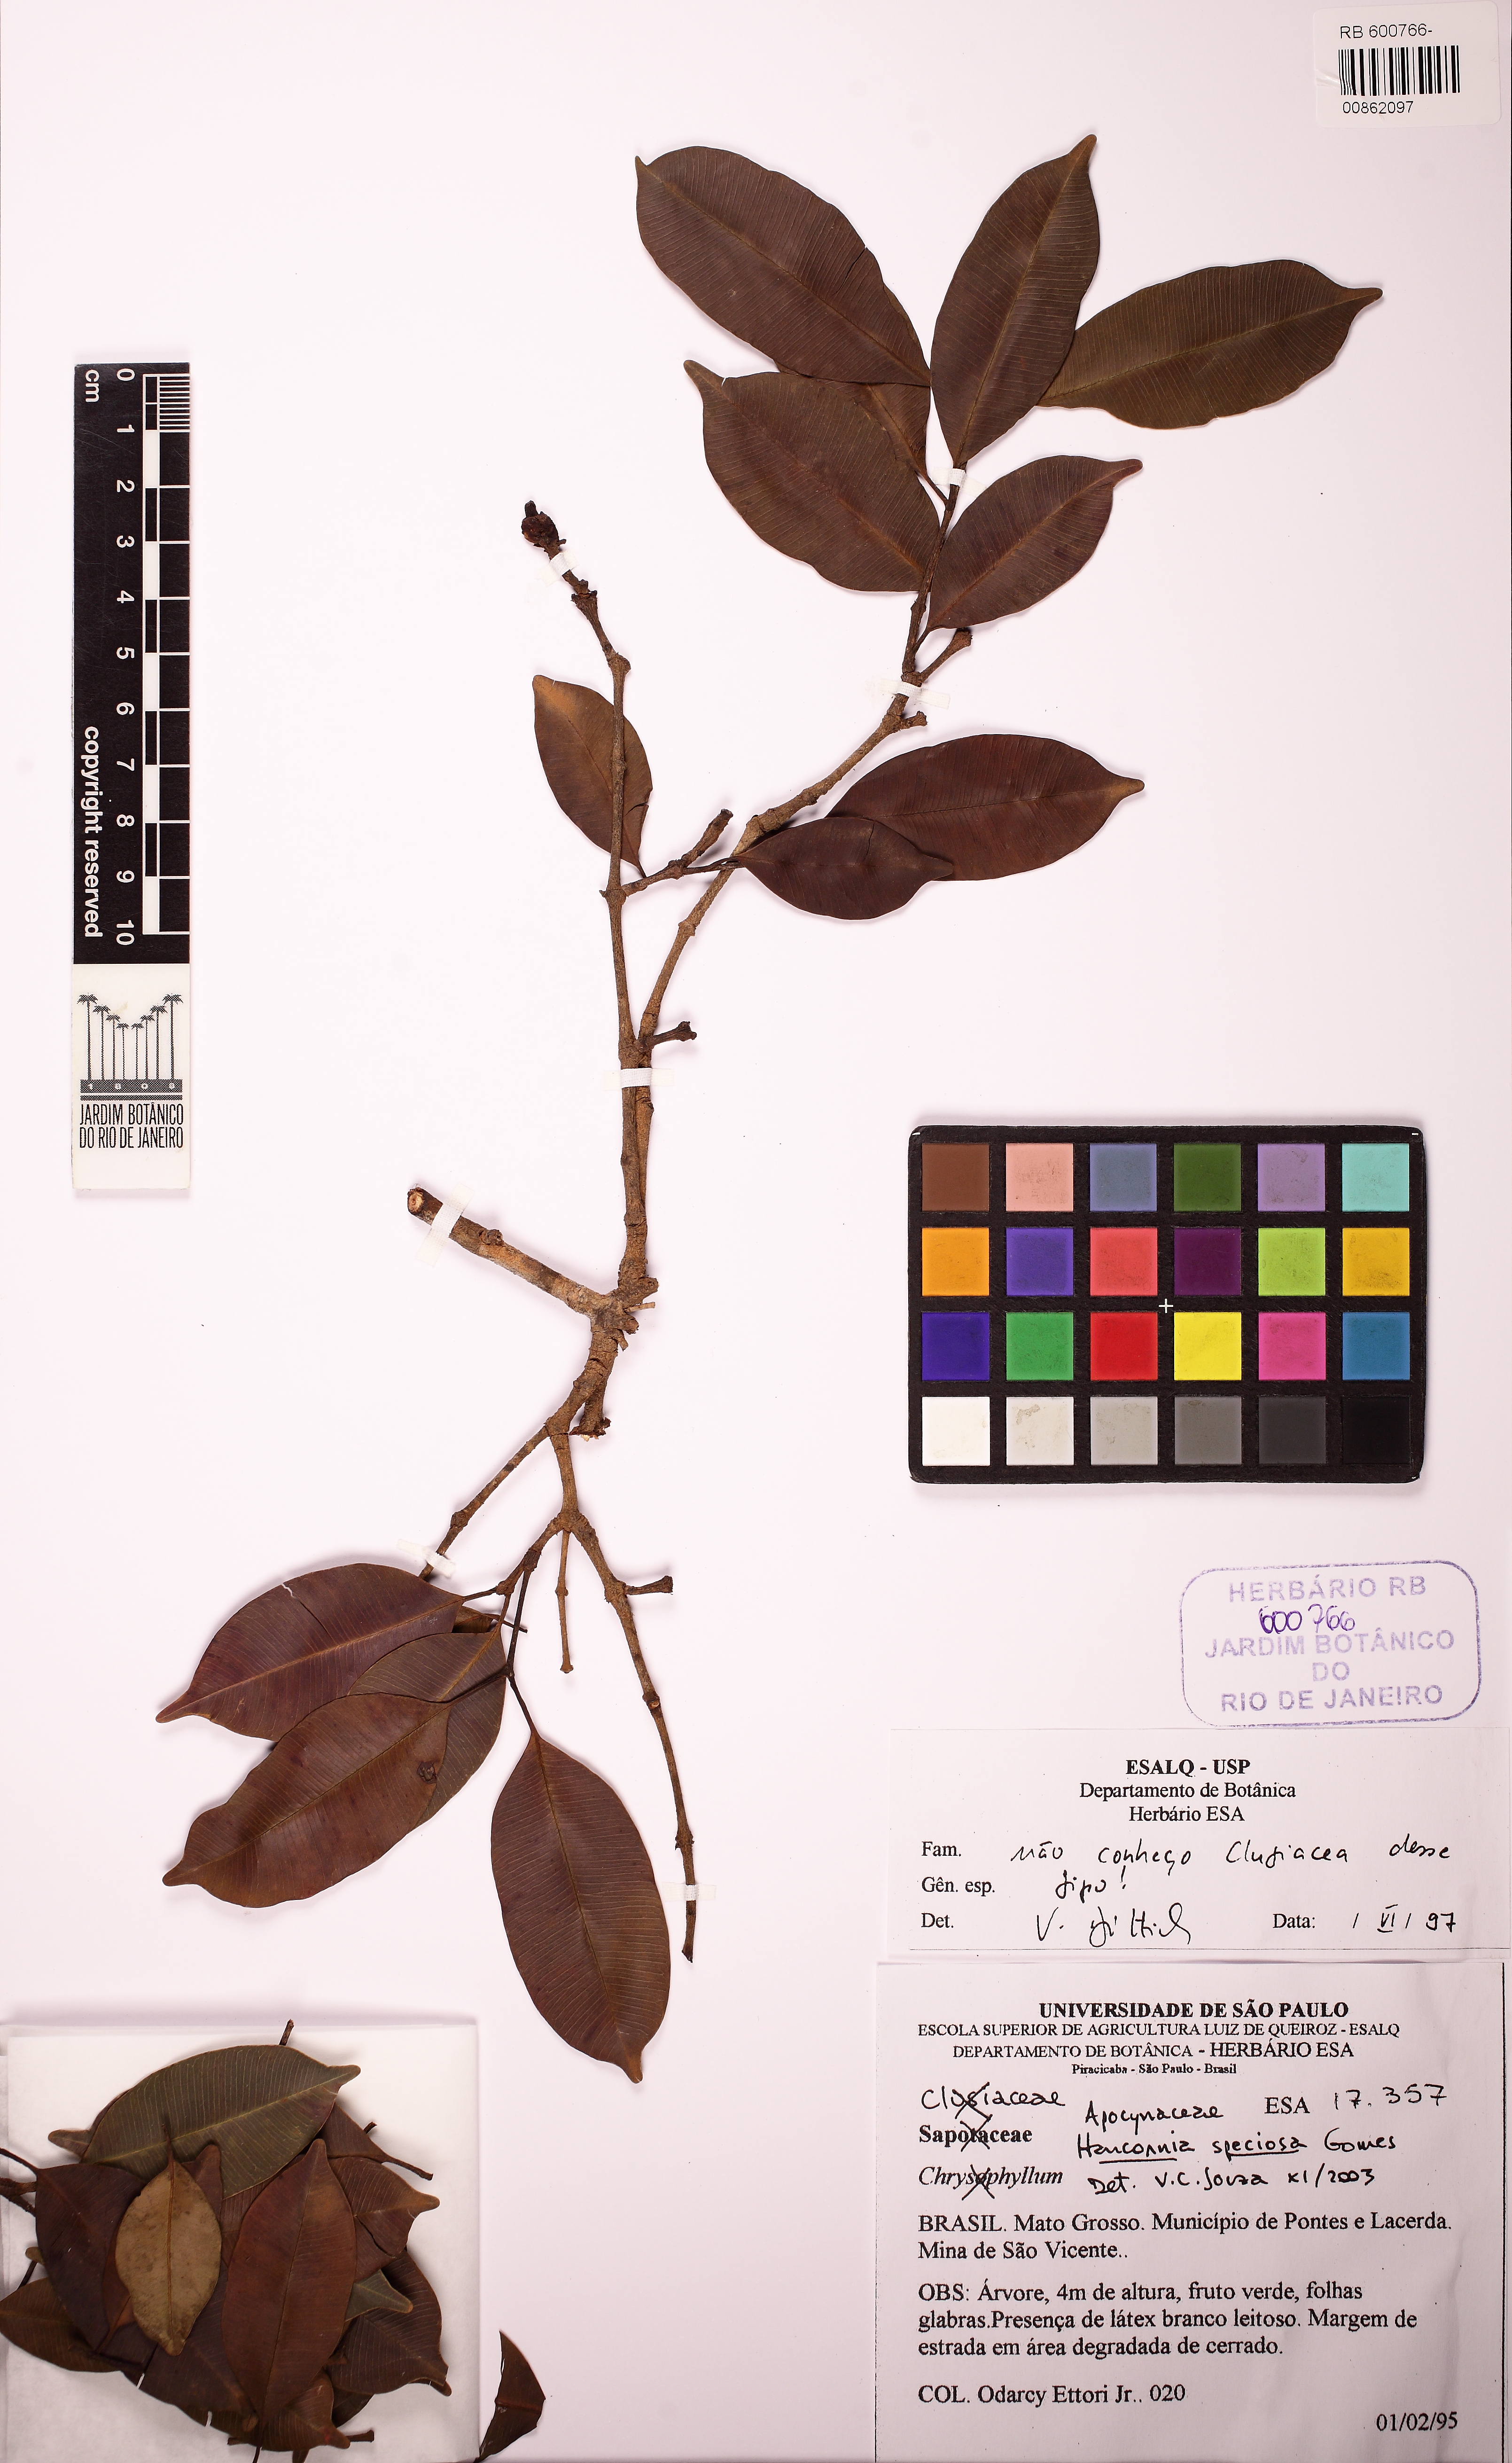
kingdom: Plantae
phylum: Tracheophyta
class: Magnoliopsida
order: Gentianales
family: Apocynaceae
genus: Hancornia
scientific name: Hancornia speciosa
